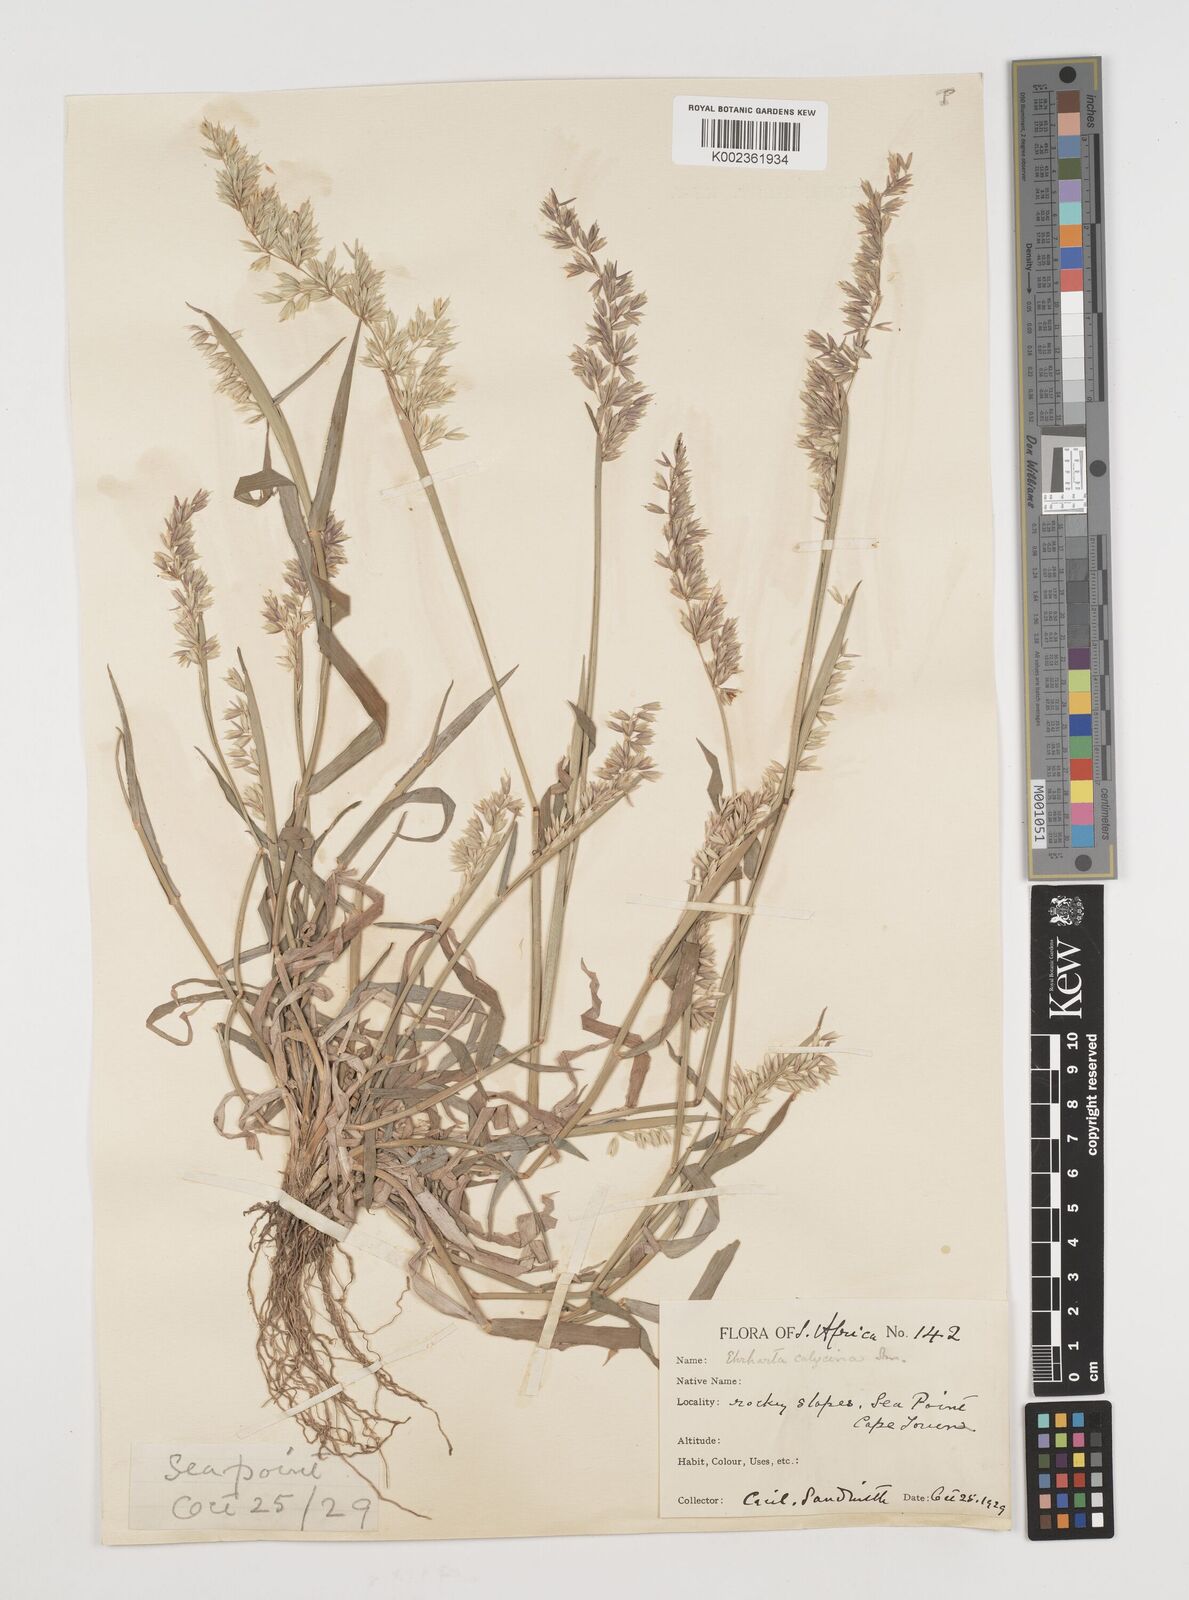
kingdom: Plantae
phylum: Tracheophyta
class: Liliopsida
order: Poales
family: Poaceae
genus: Ehrharta
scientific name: Ehrharta calycina
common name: Perennial veldtgrass
